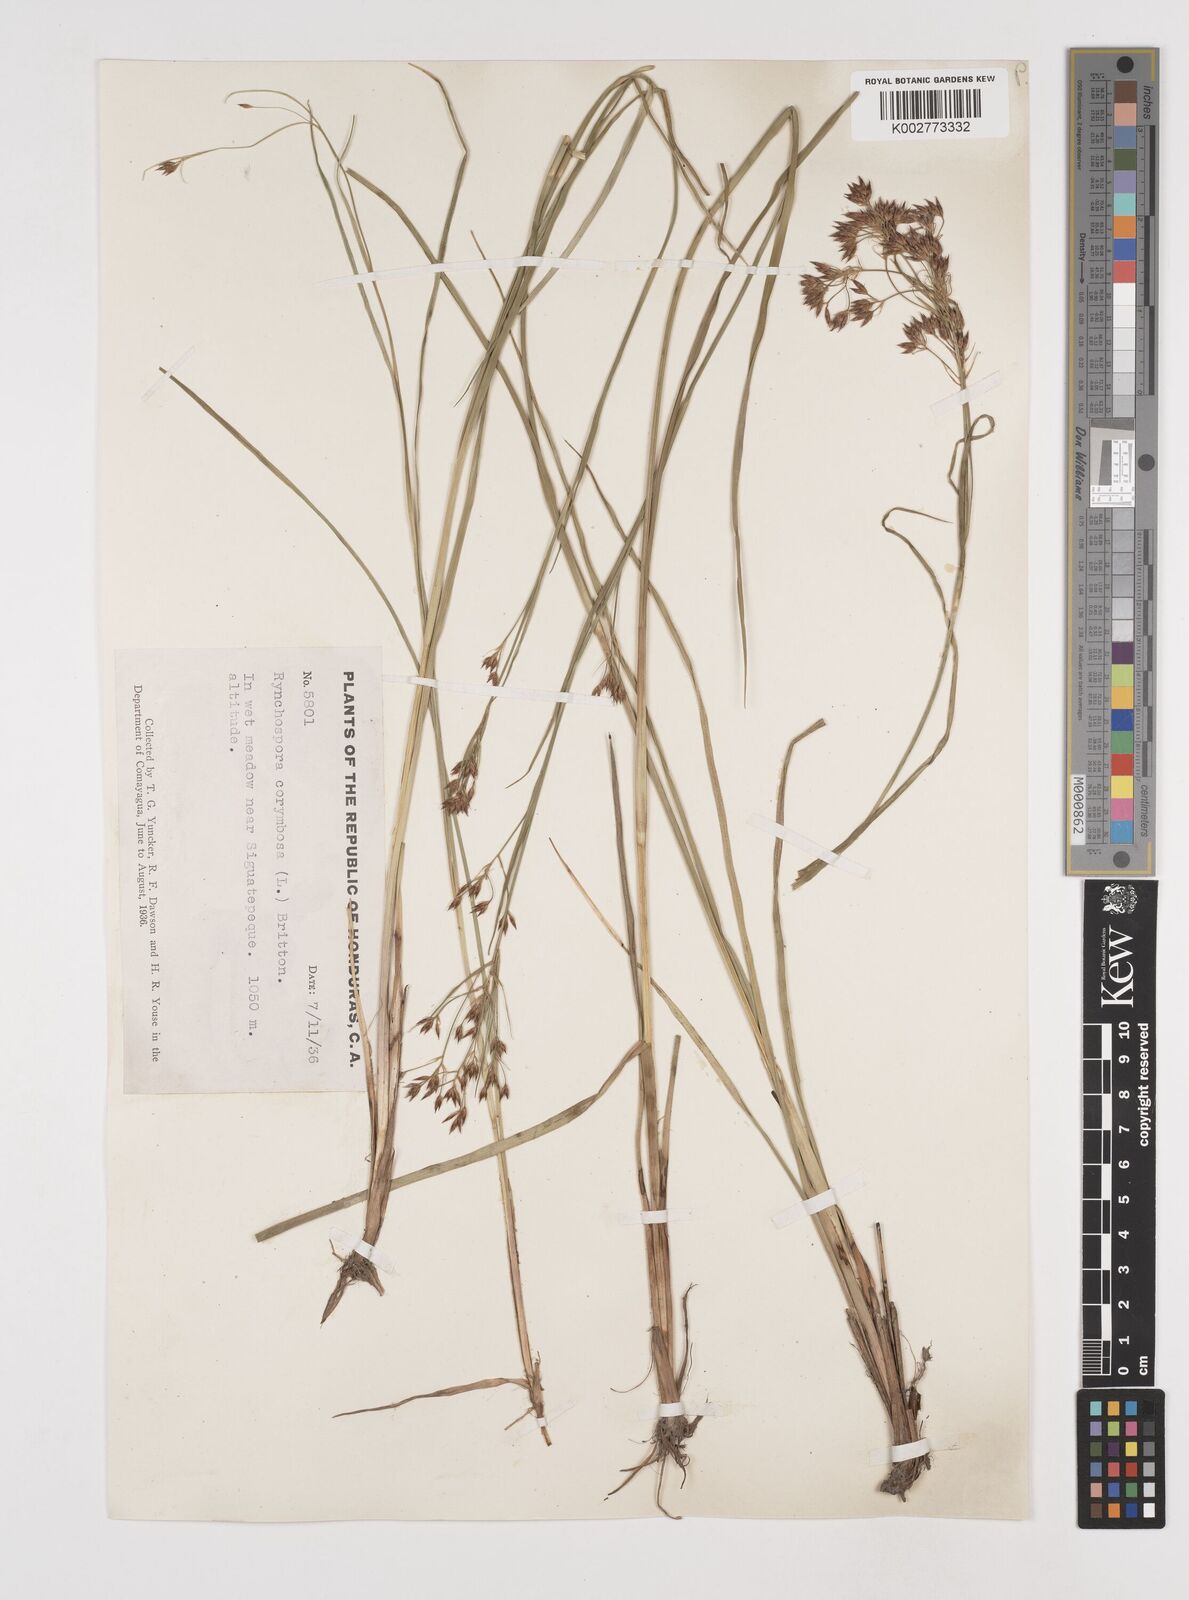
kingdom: Plantae
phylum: Tracheophyta
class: Liliopsida
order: Poales
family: Cyperaceae
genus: Rhynchospora
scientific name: Rhynchospora corymbosa
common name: Golden beak sedge
